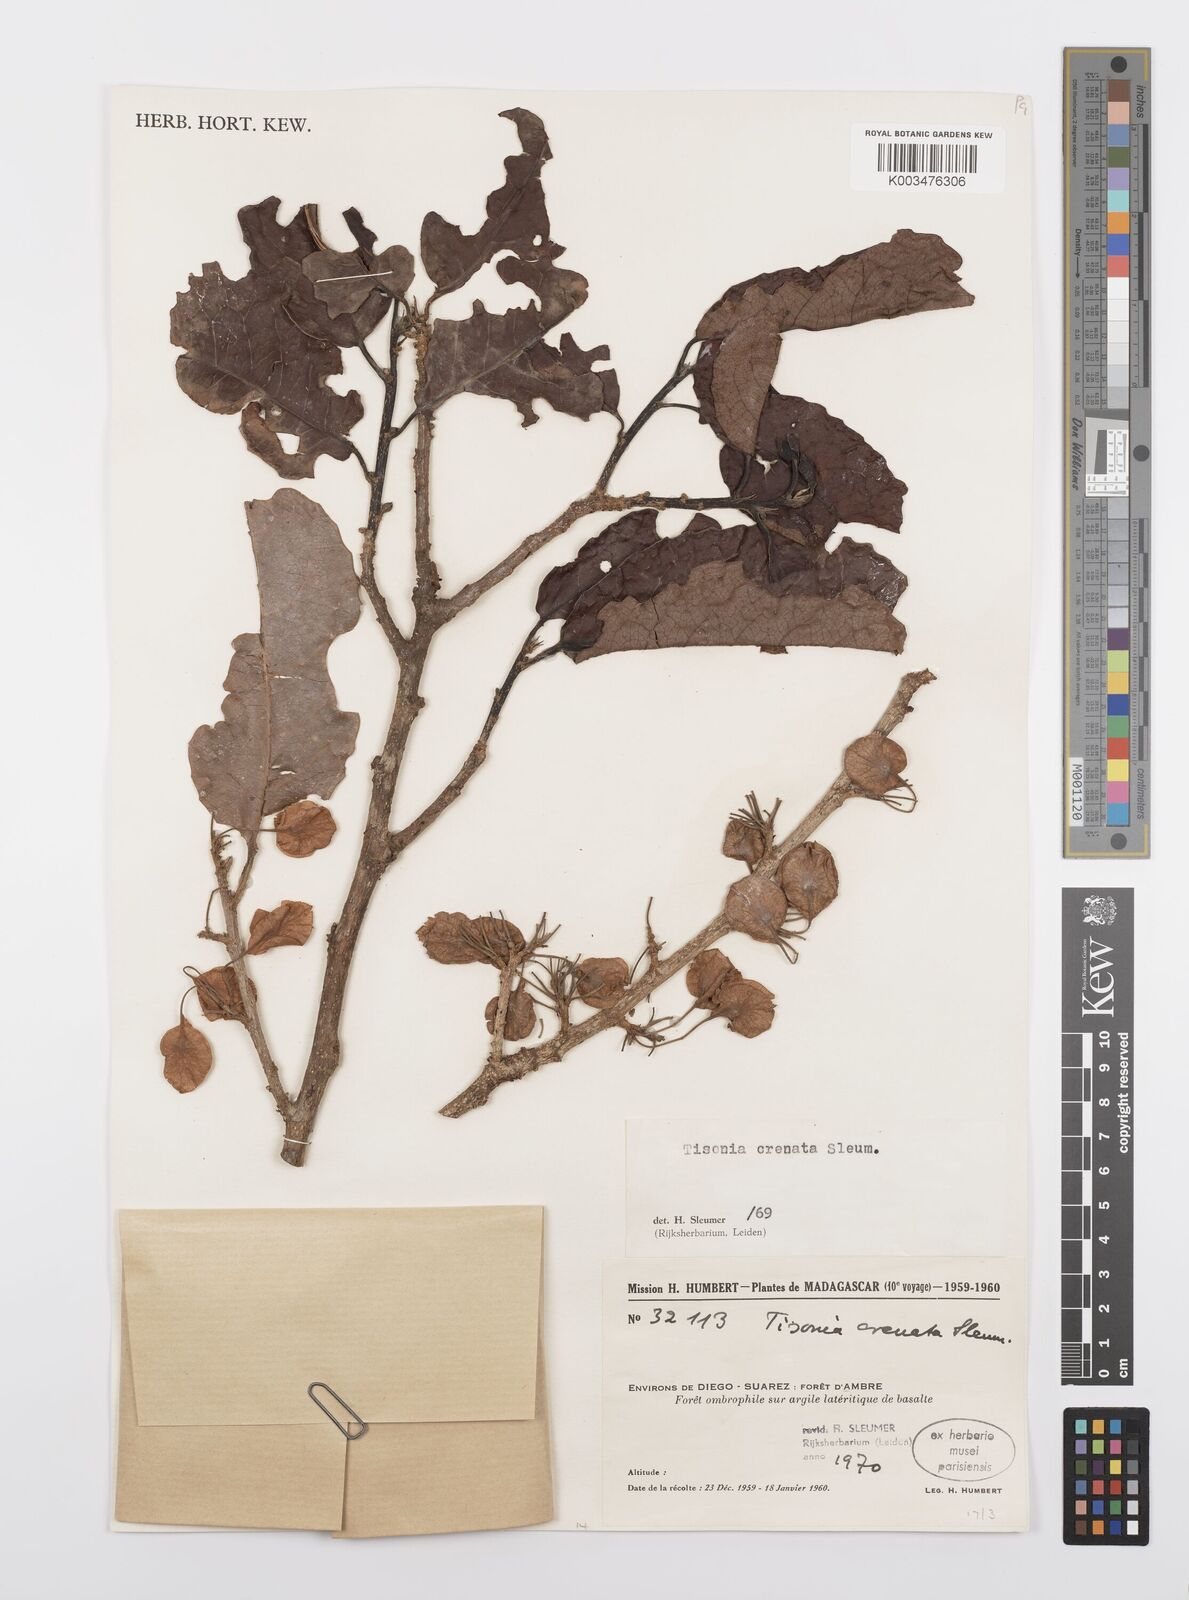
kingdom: Plantae
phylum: Tracheophyta
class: Magnoliopsida
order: Malpighiales
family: Salicaceae
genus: Tisonia
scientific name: Tisonia baronii
